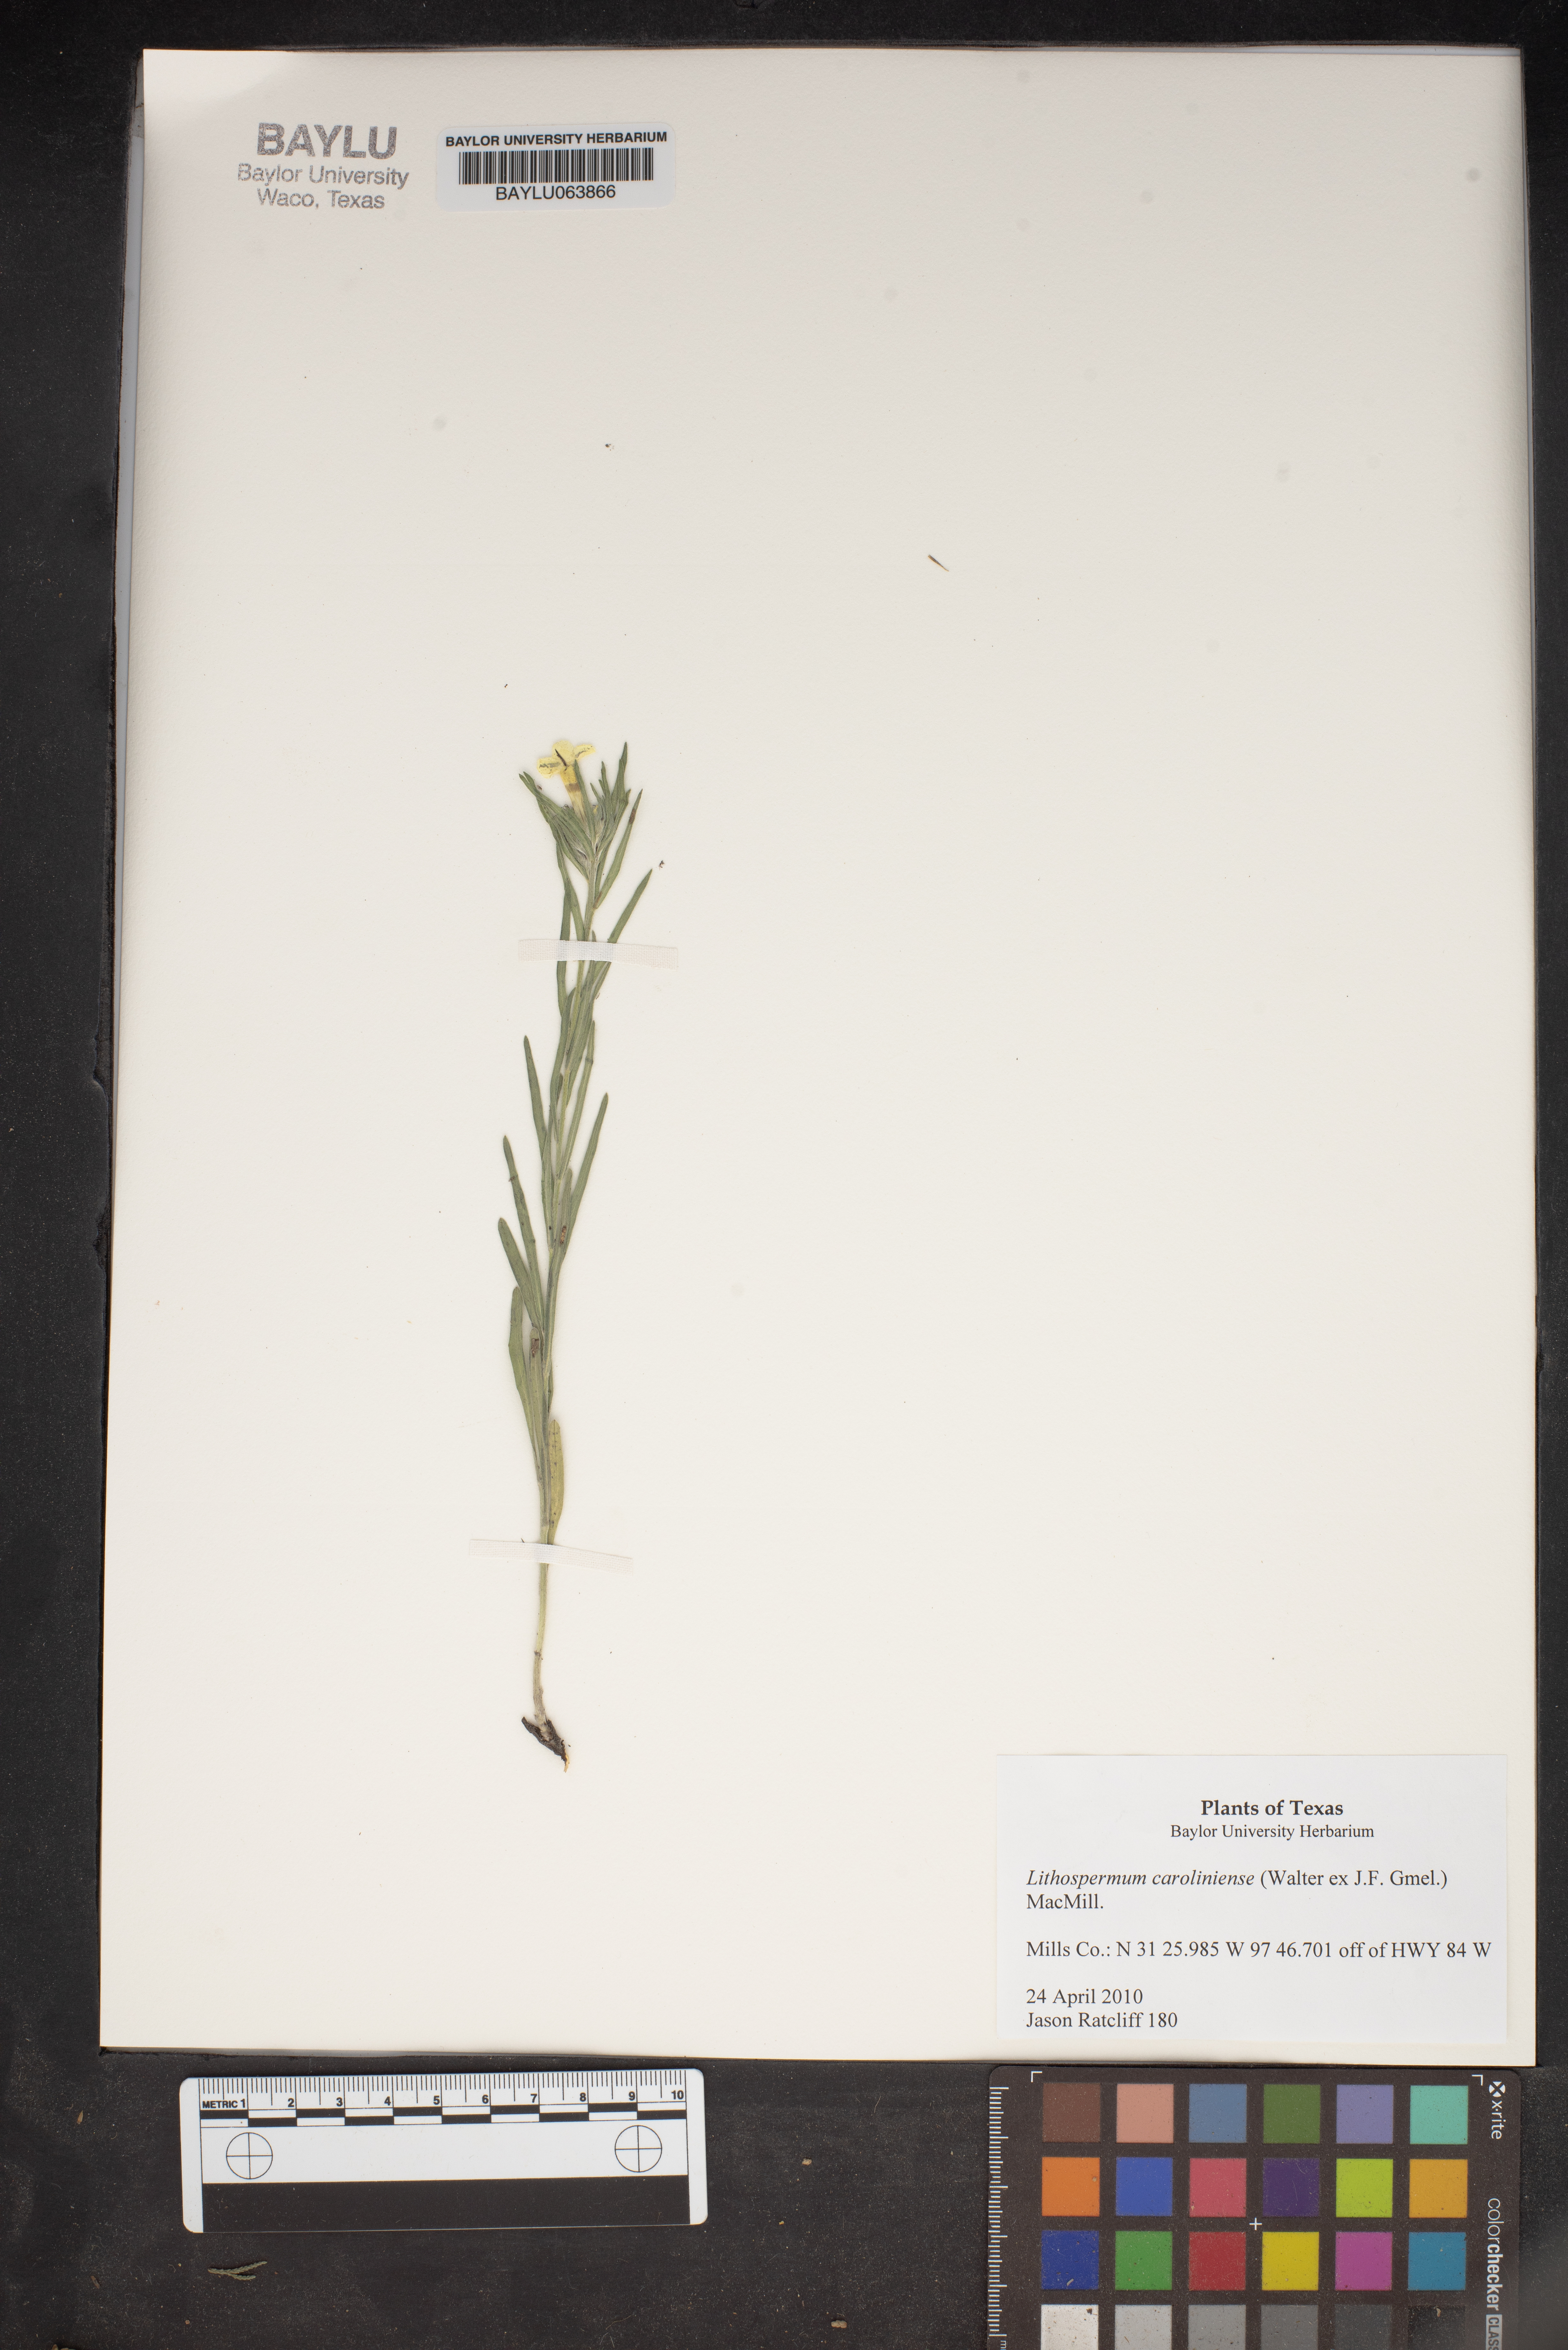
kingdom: Plantae
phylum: Tracheophyta
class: Magnoliopsida
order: Boraginales
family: Boraginaceae
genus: Lithospermum
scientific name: Lithospermum caroliniense
